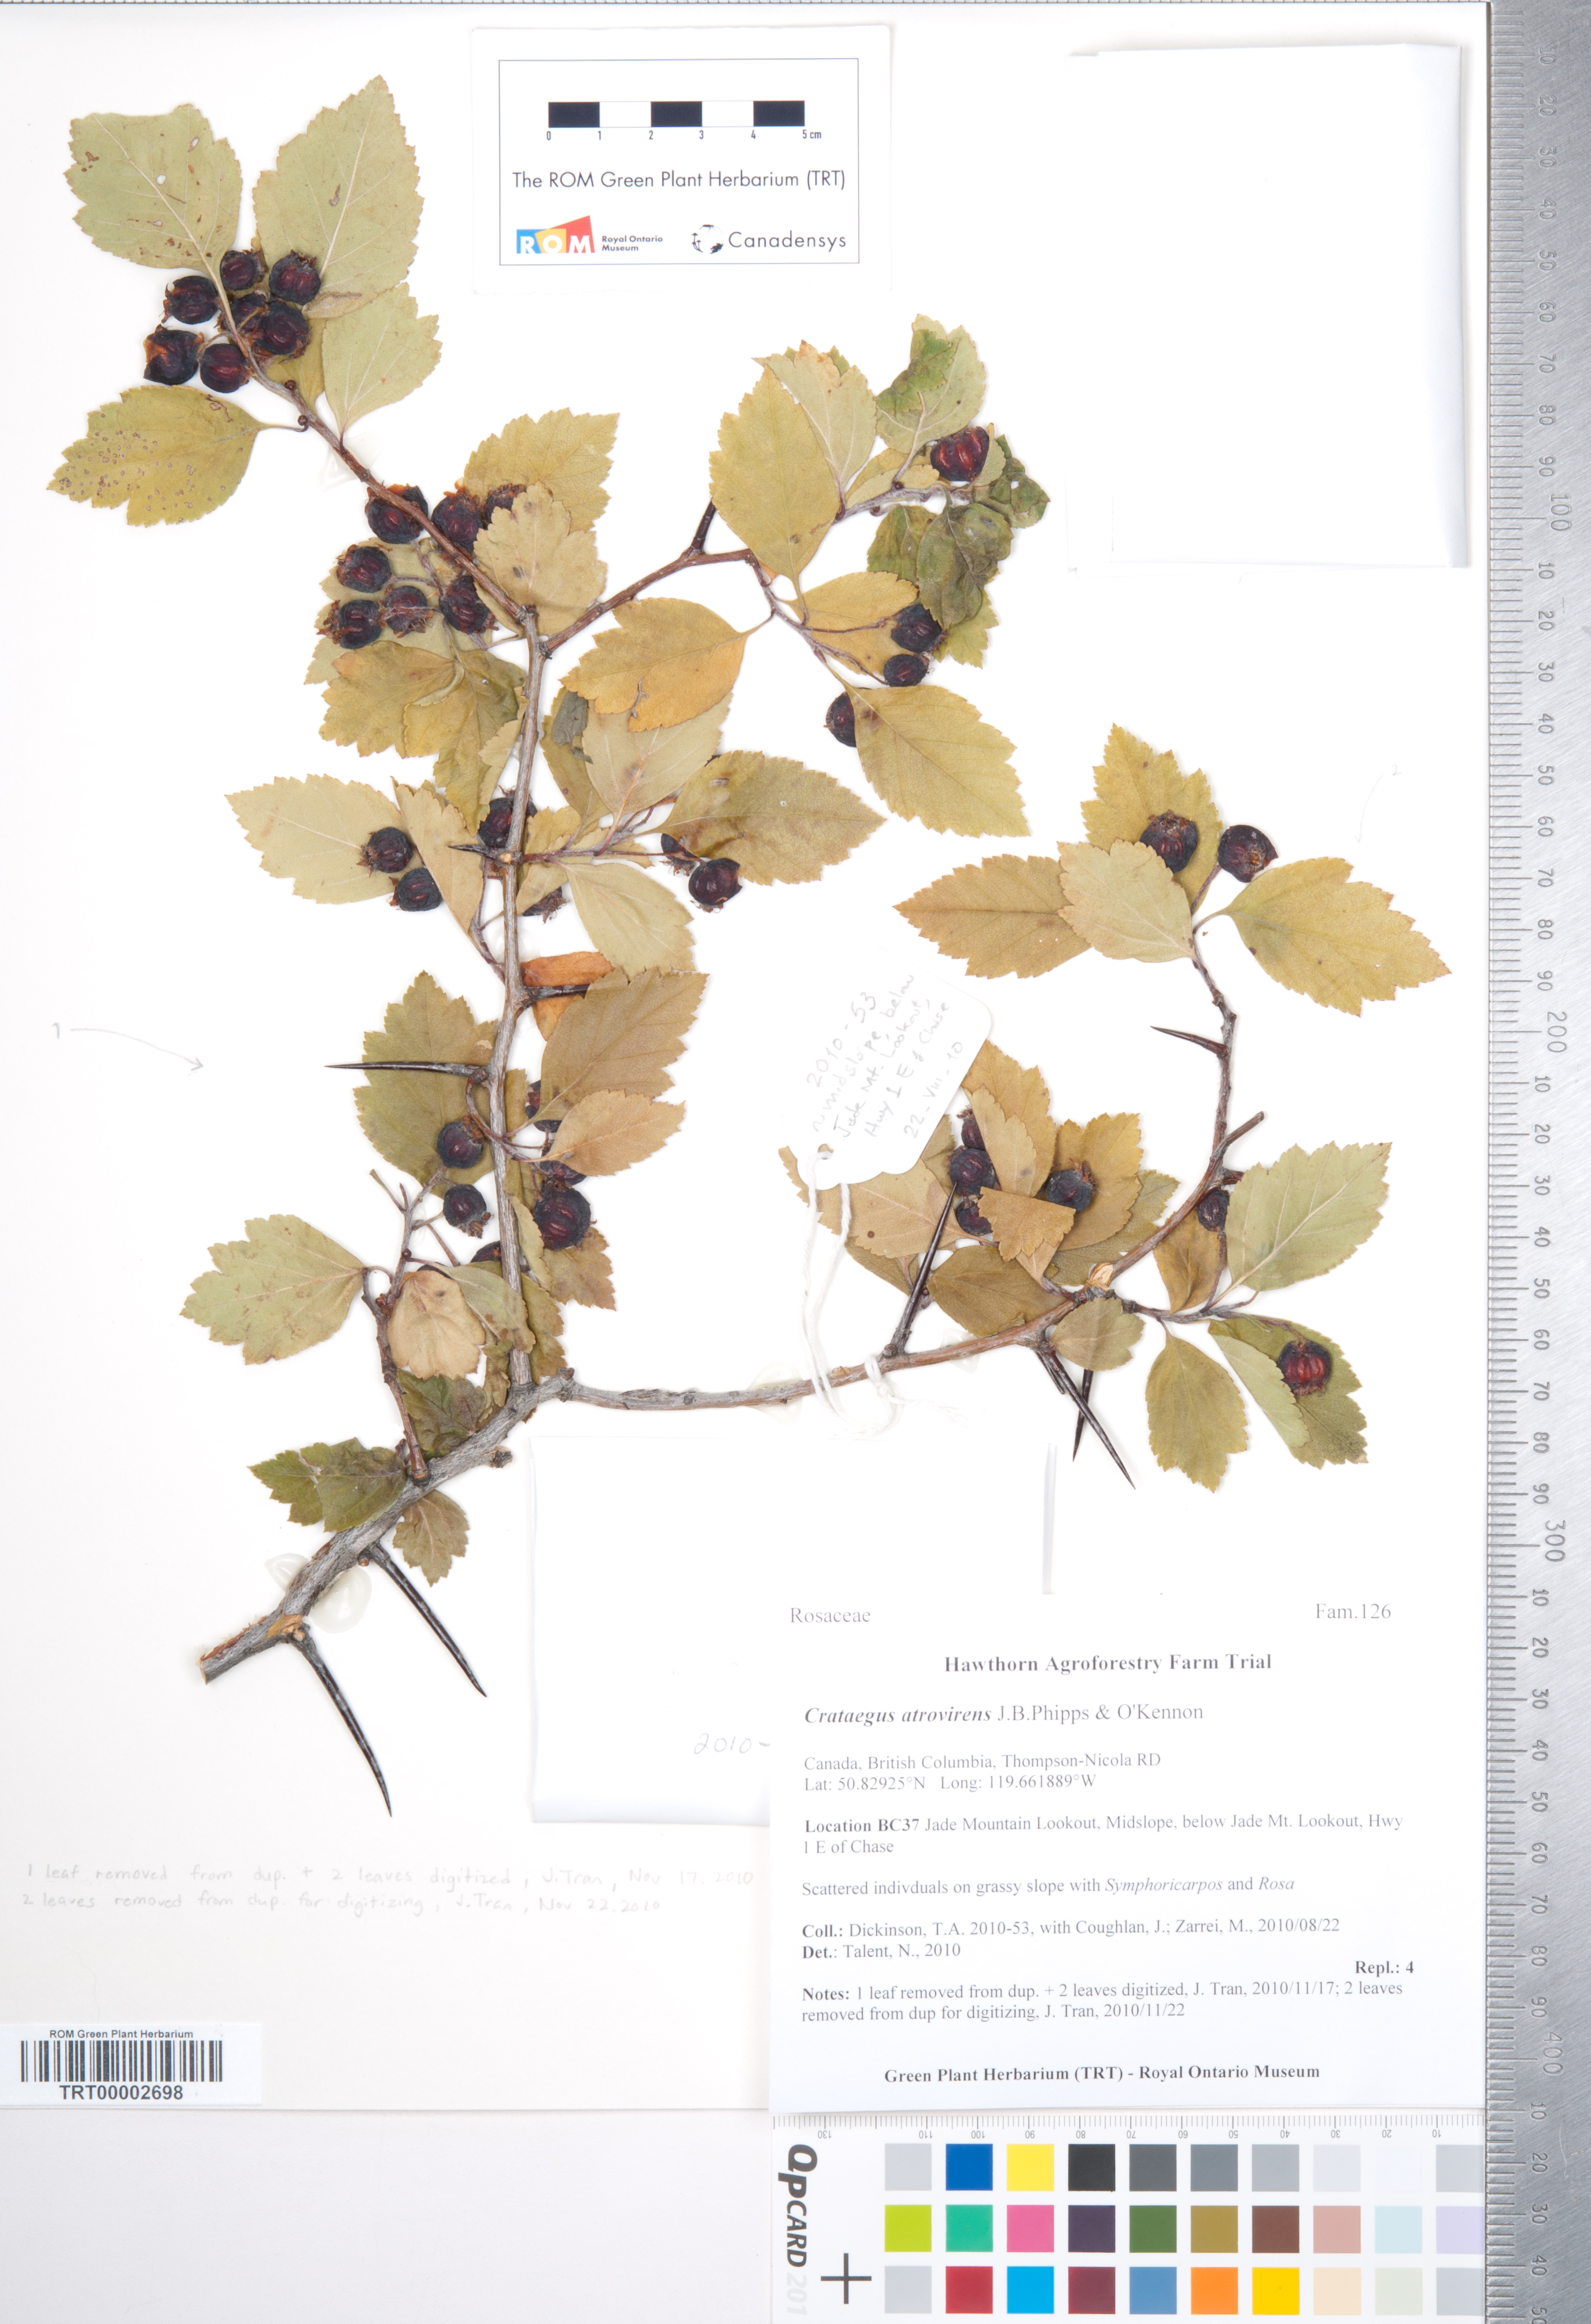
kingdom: Plantae
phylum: Tracheophyta
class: Magnoliopsida
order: Rosales
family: Rosaceae
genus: Crataegus
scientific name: Crataegus atrovirens
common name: Dark green hawthorn
